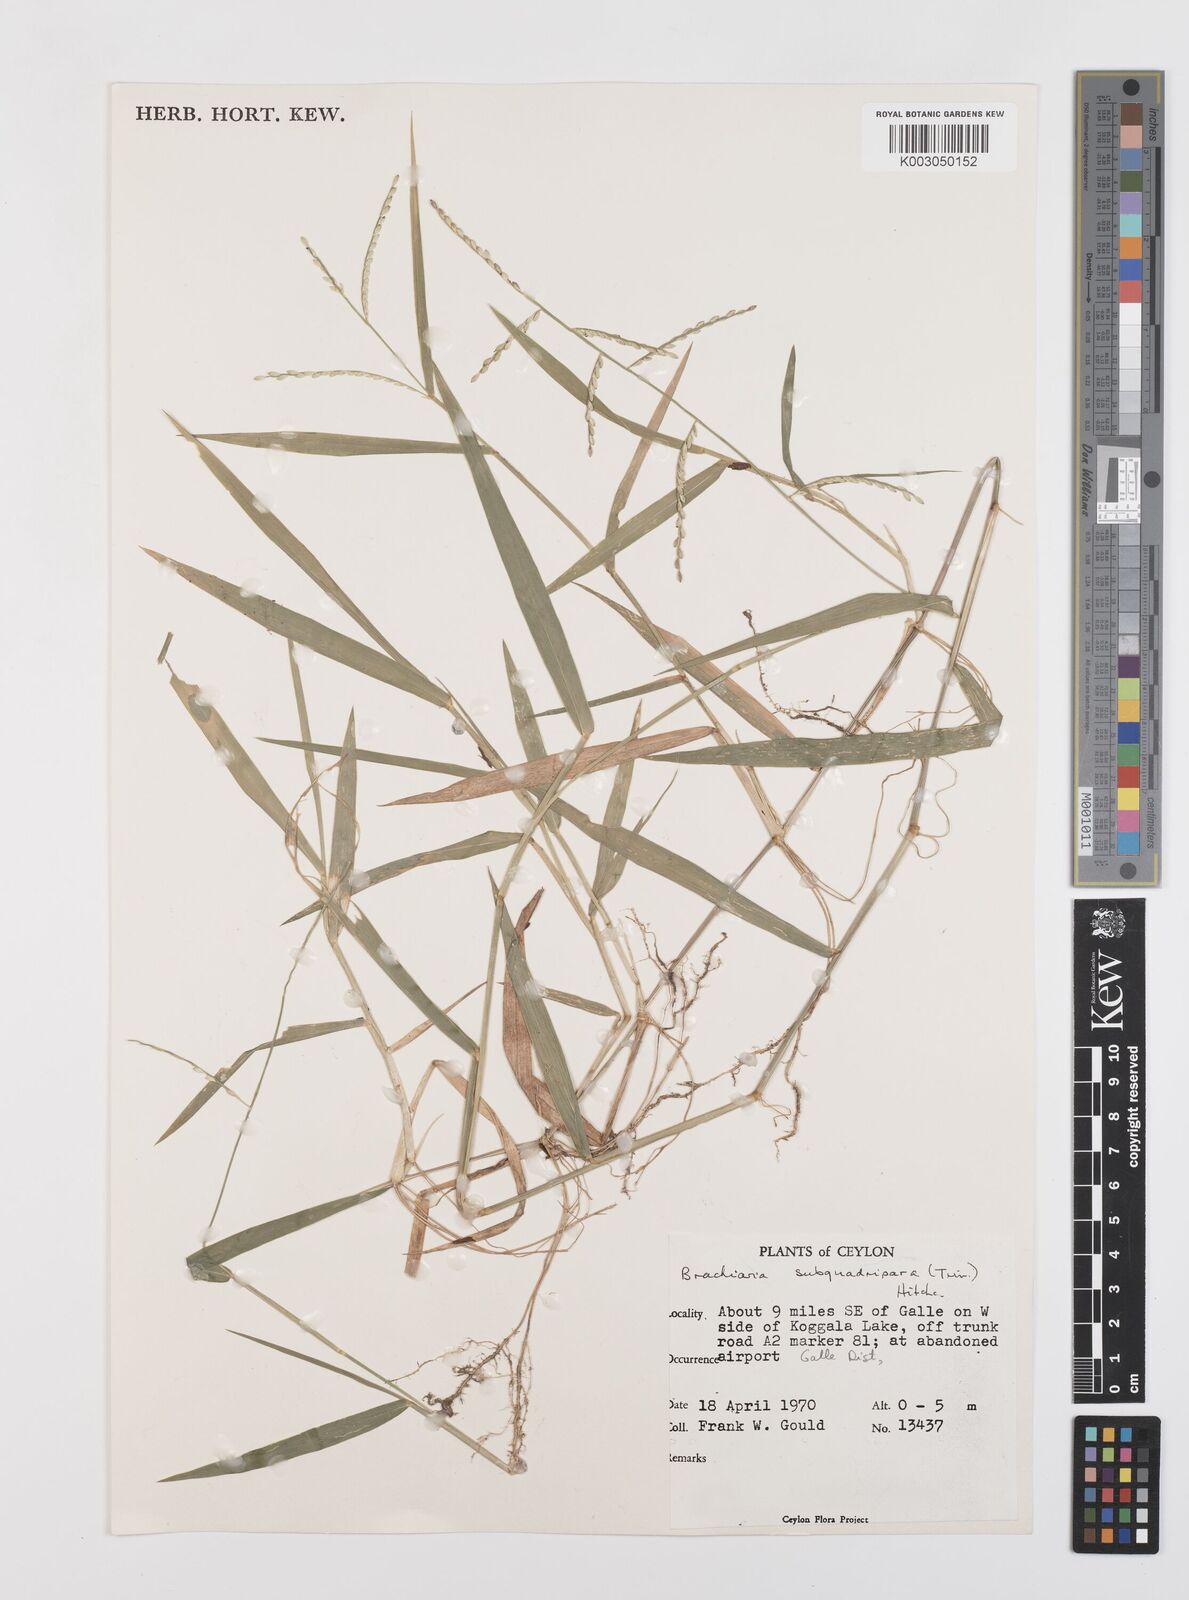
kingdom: Plantae
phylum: Tracheophyta
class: Liliopsida
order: Poales
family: Poaceae
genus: Urochloa
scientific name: Urochloa subquadripara
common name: Armgrass millet
